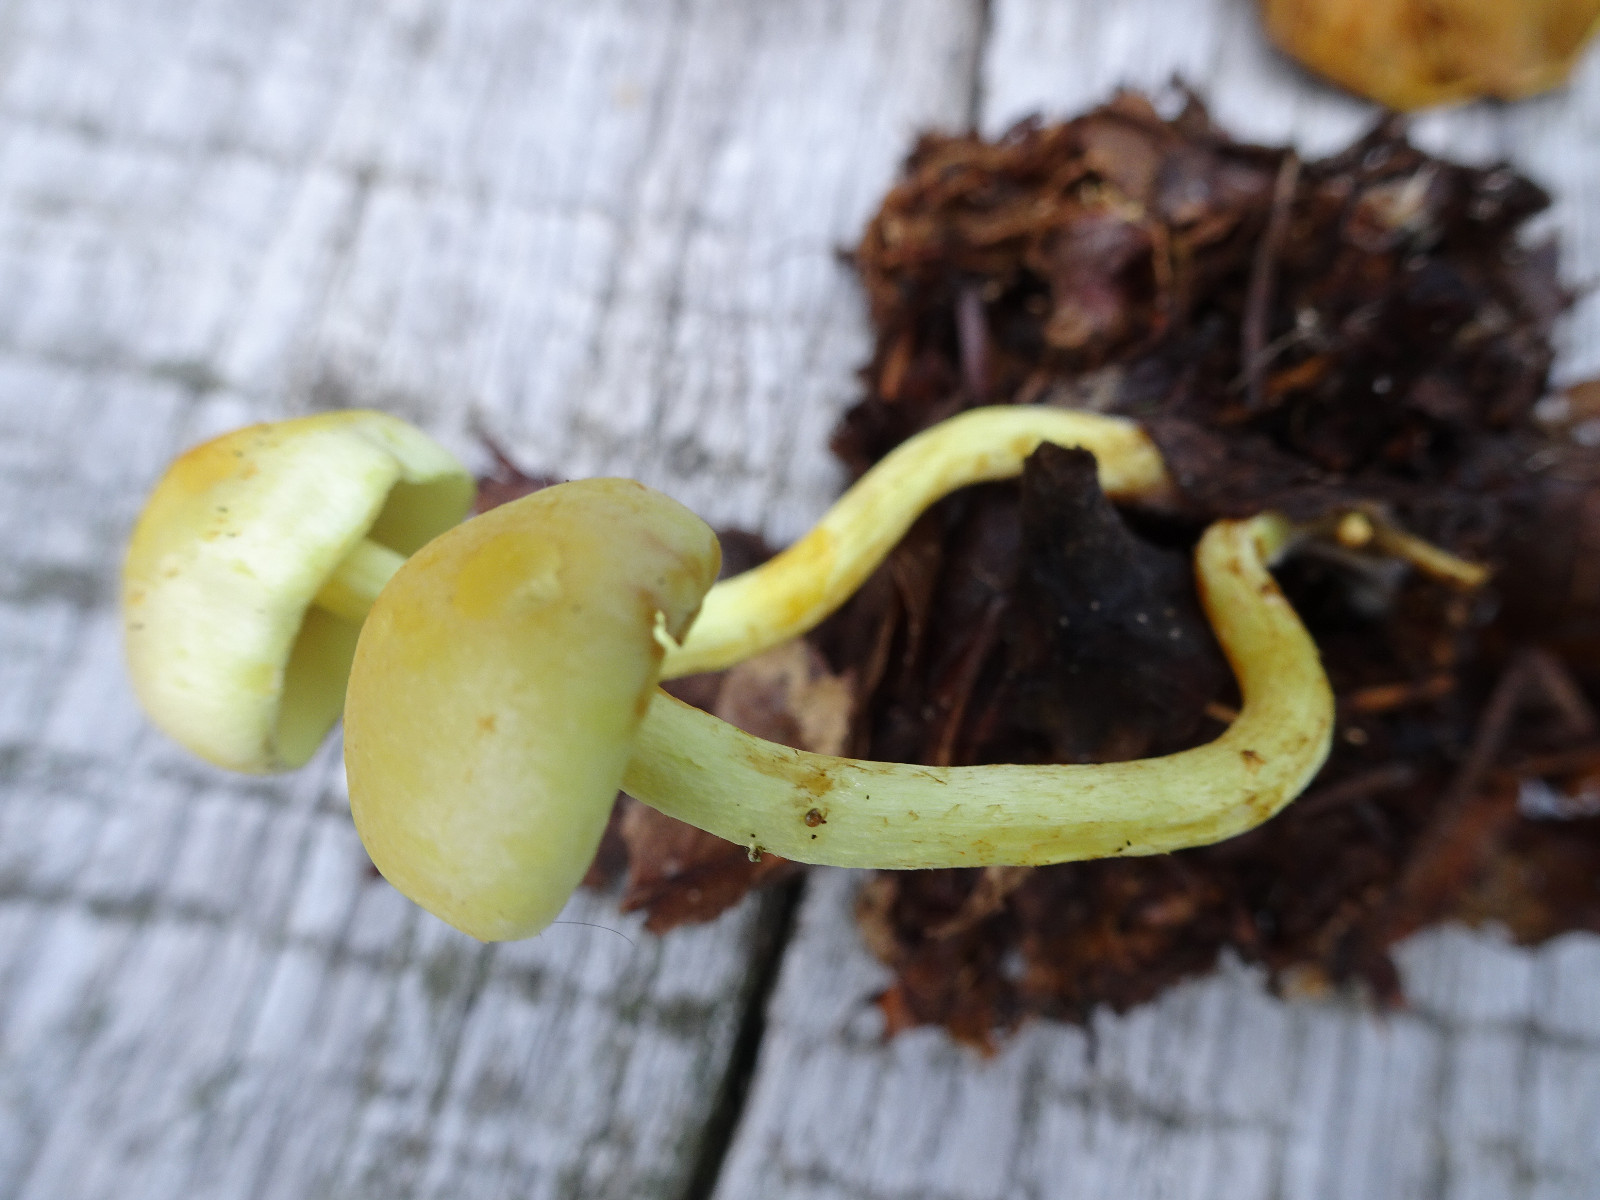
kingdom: Fungi
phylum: Basidiomycota
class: Agaricomycetes
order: Agaricales
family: Tricholomataceae
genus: Tricholoma
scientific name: Tricholoma sulphureum
